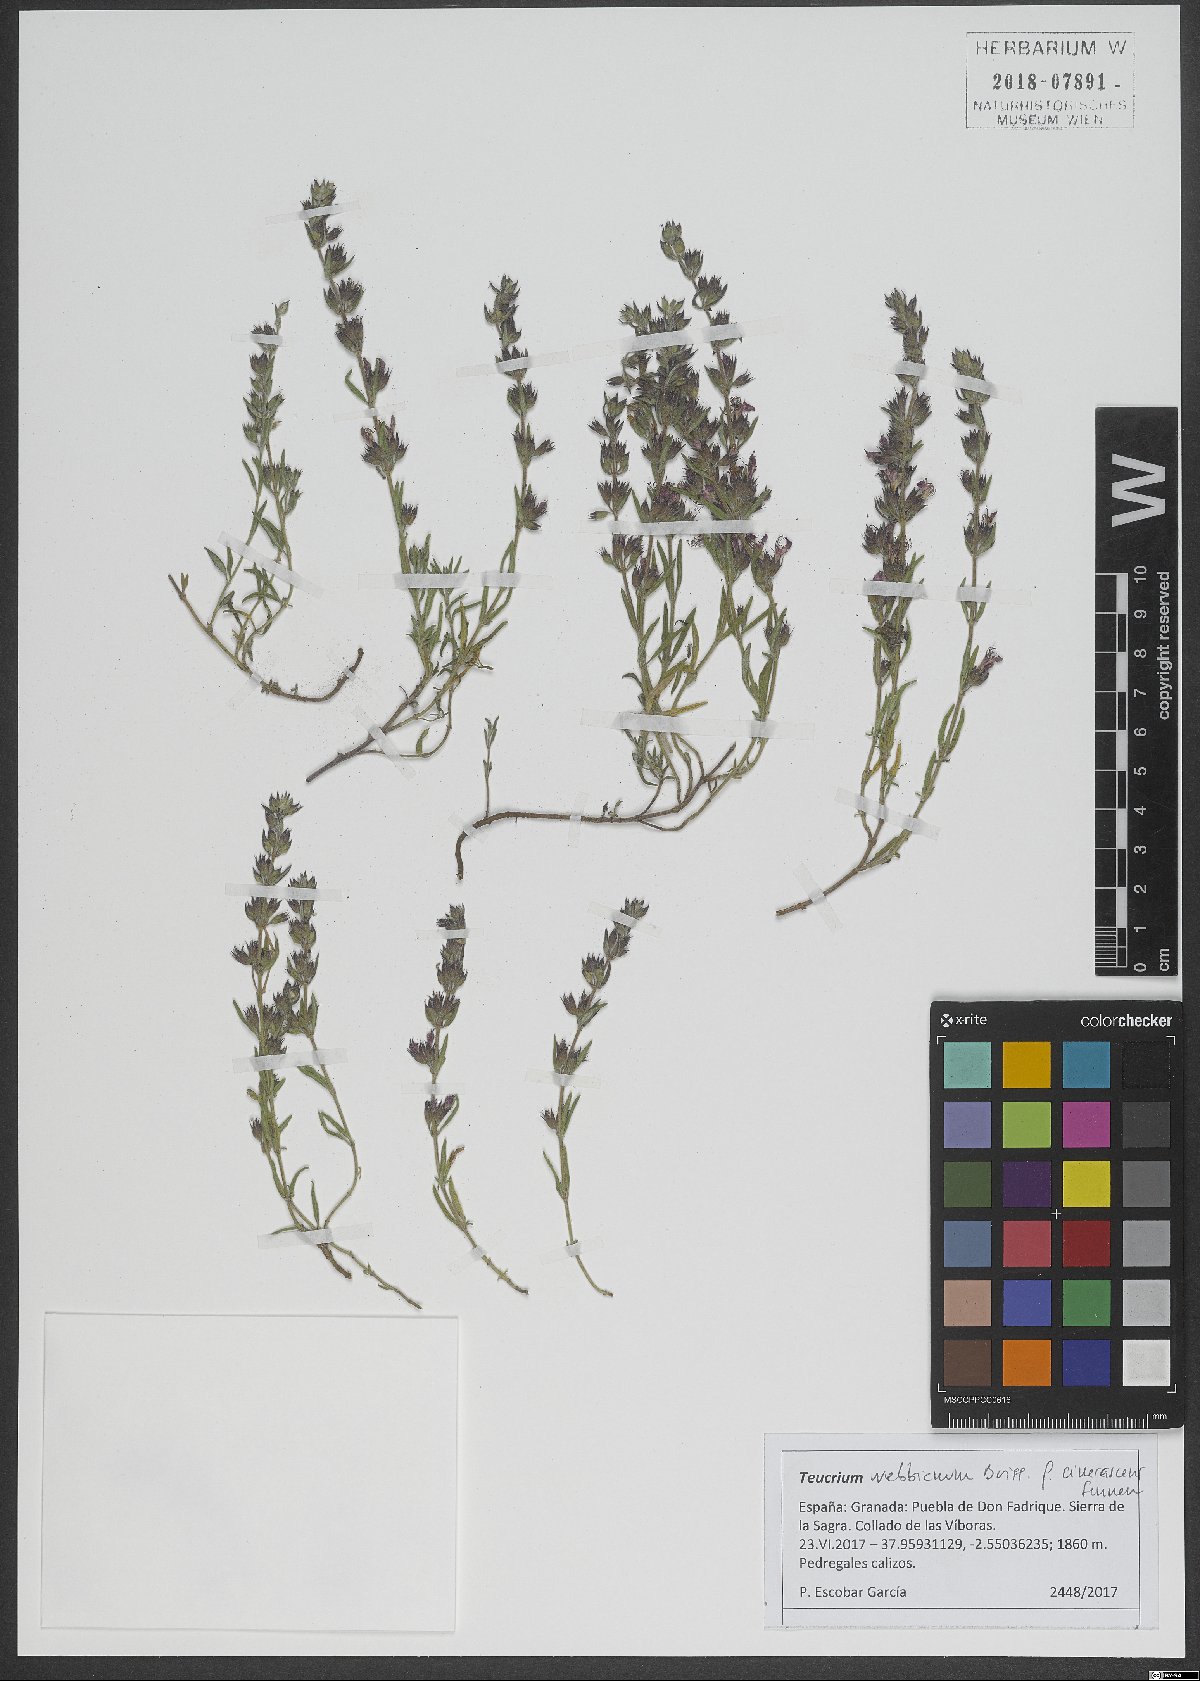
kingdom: Plantae
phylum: Tracheophyta
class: Magnoliopsida
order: Lamiales
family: Lamiaceae
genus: Teucrium
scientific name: Teucrium webbianum
